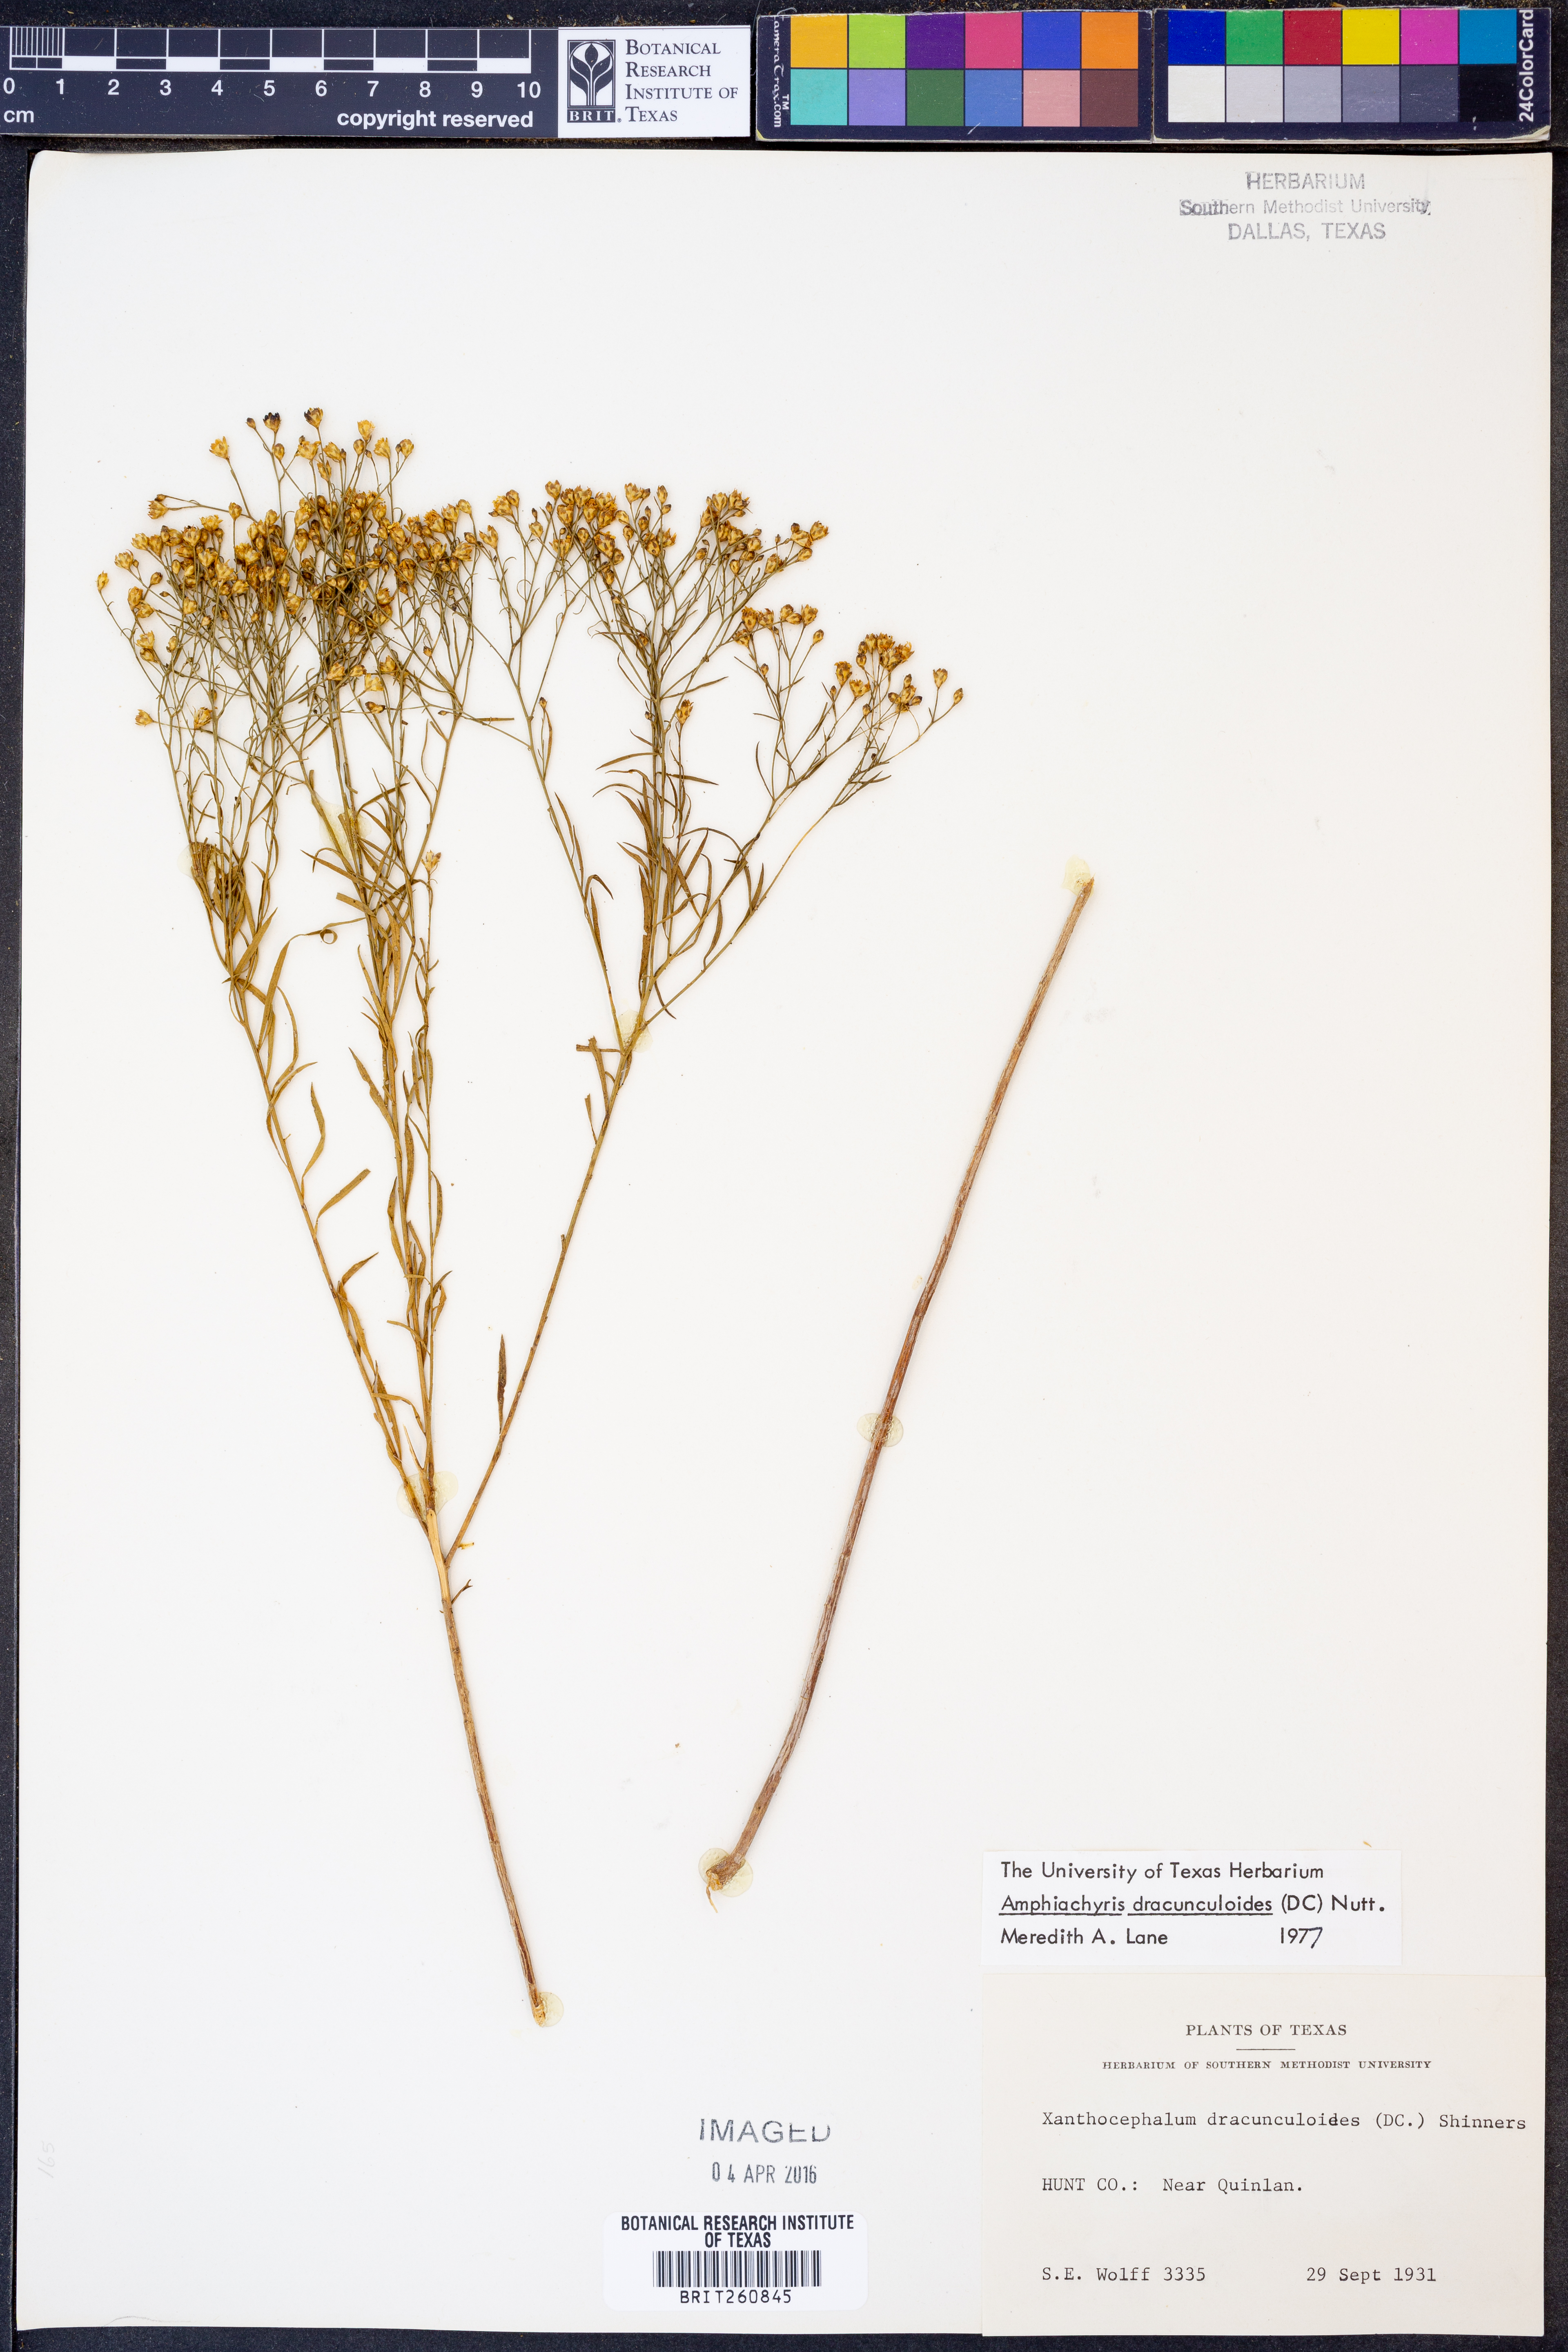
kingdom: Plantae
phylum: Tracheophyta
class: Magnoliopsida
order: Asterales
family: Asteraceae
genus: Amphiachyris
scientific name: Amphiachyris dracunculoides
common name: Broomweed
